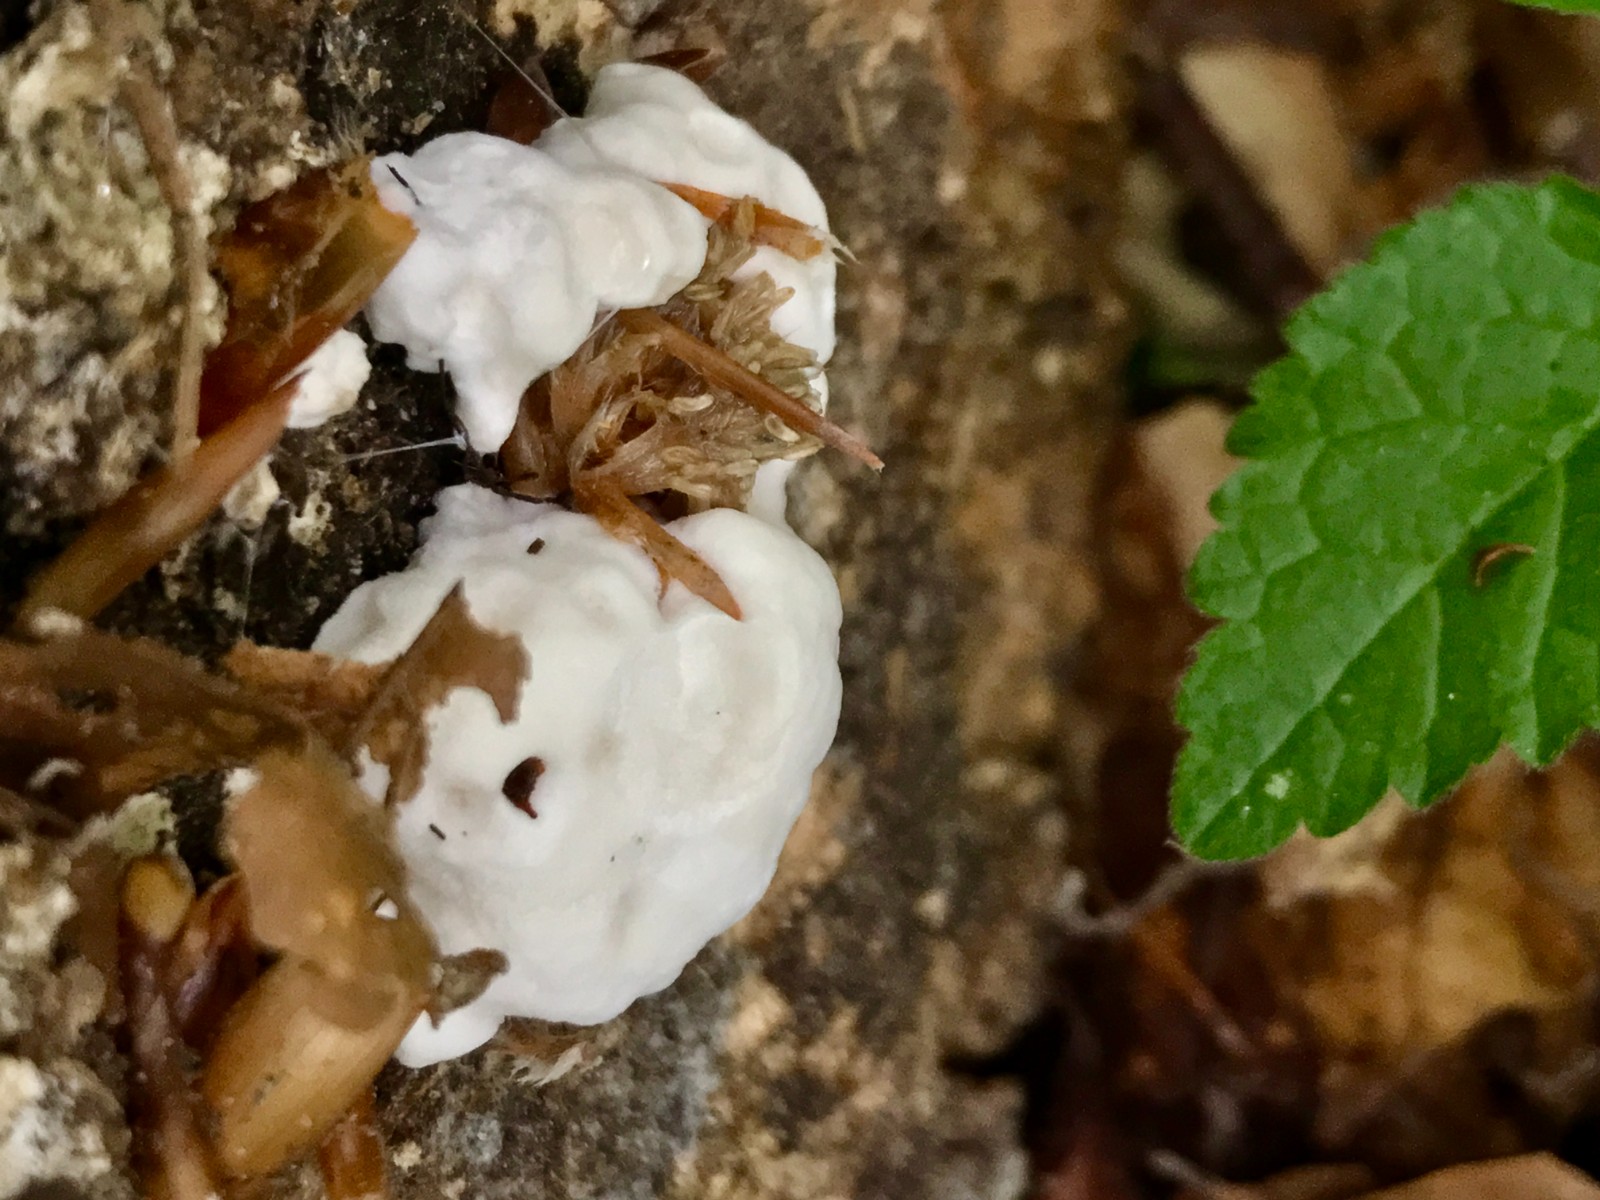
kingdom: Fungi
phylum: Basidiomycota
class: Agaricomycetes
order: Polyporales
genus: Amaropostia
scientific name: Amaropostia stiptica
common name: bitter kødporesvamp
